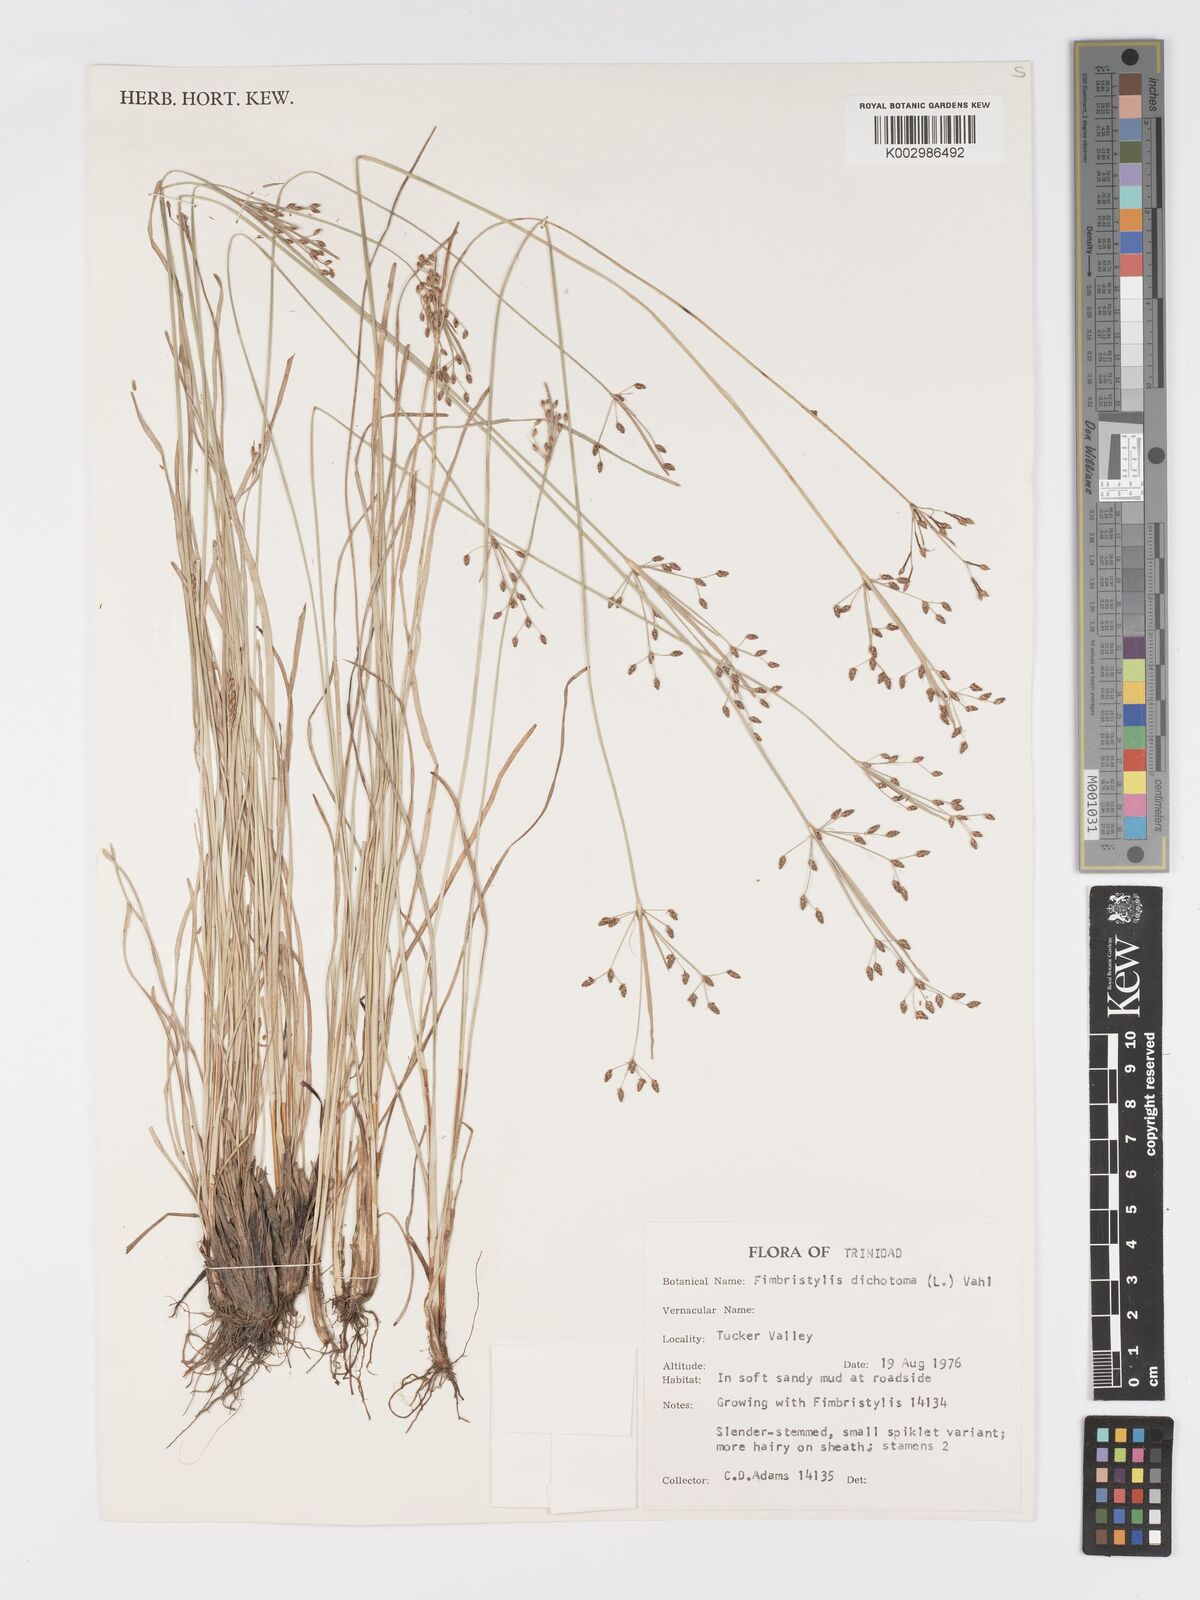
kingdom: Plantae
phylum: Tracheophyta
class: Liliopsida
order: Poales
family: Cyperaceae
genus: Fimbristylis
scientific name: Fimbristylis dichotoma
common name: Forked fimbry
